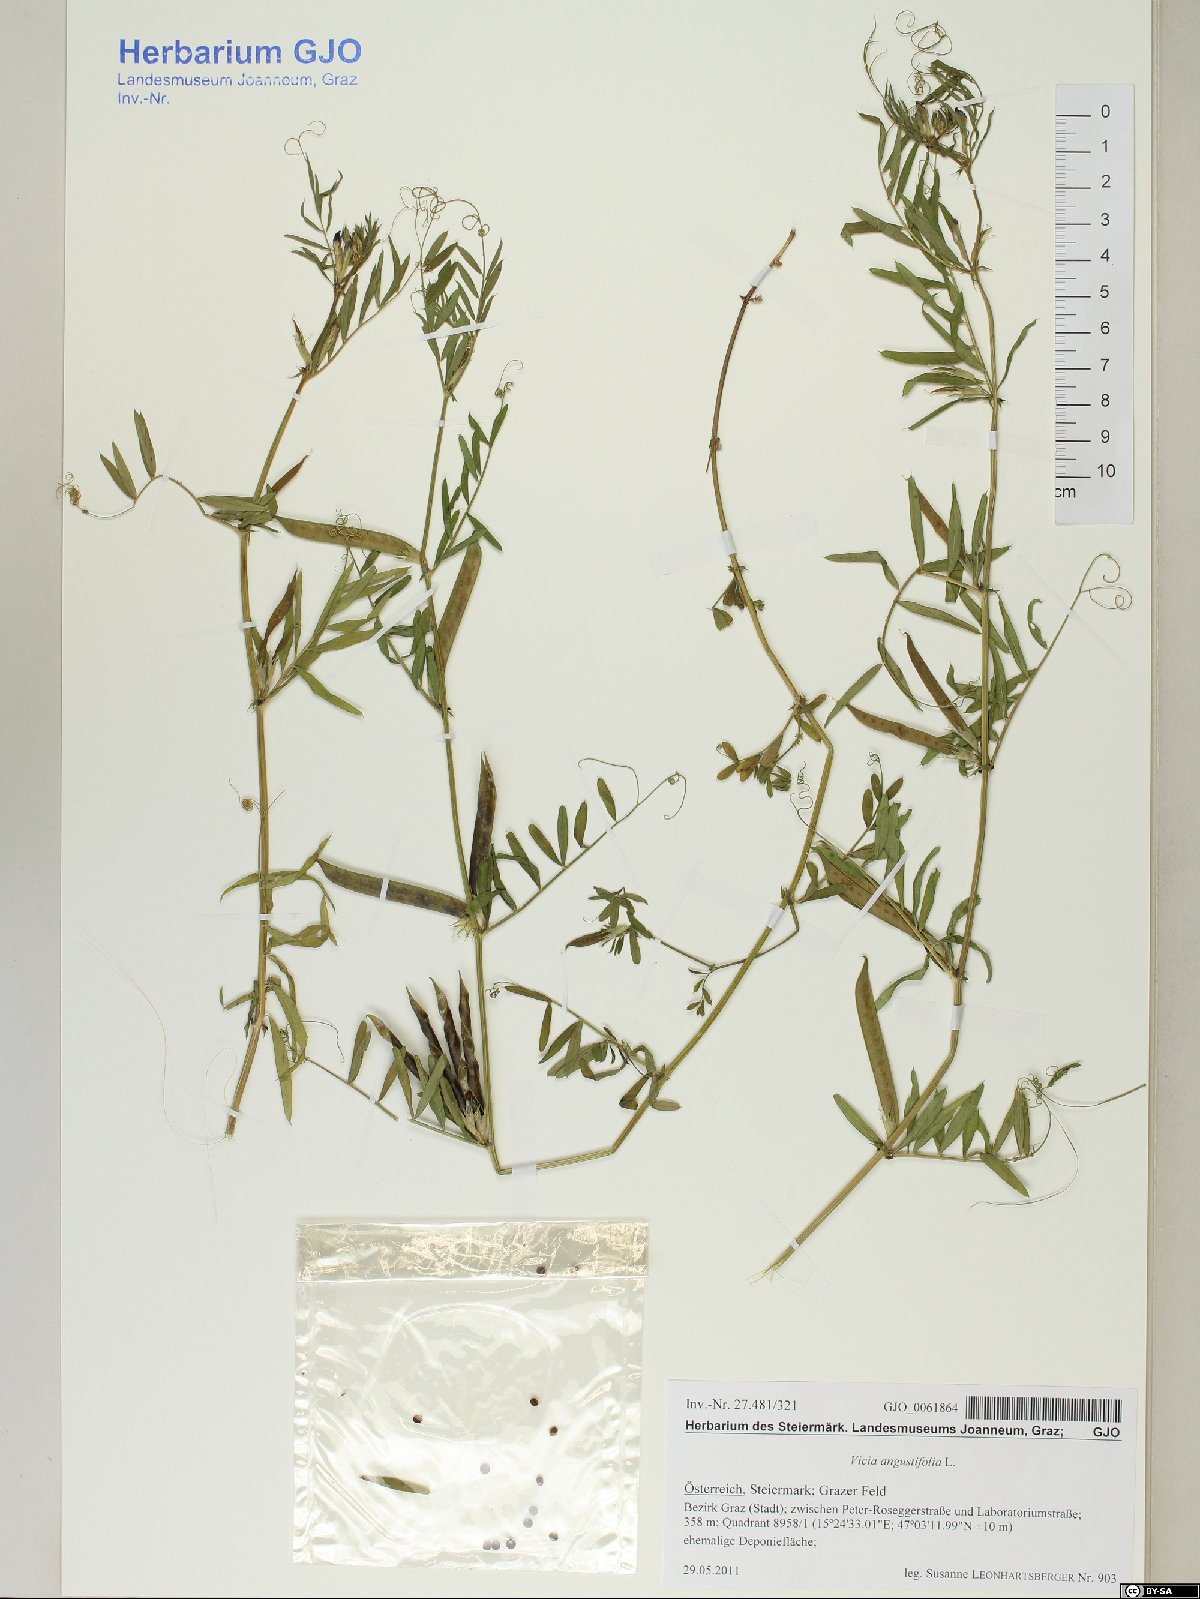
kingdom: Plantae
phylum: Tracheophyta
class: Magnoliopsida
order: Fabales
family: Fabaceae
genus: Vicia
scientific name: Vicia sativa
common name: Garden vetch
